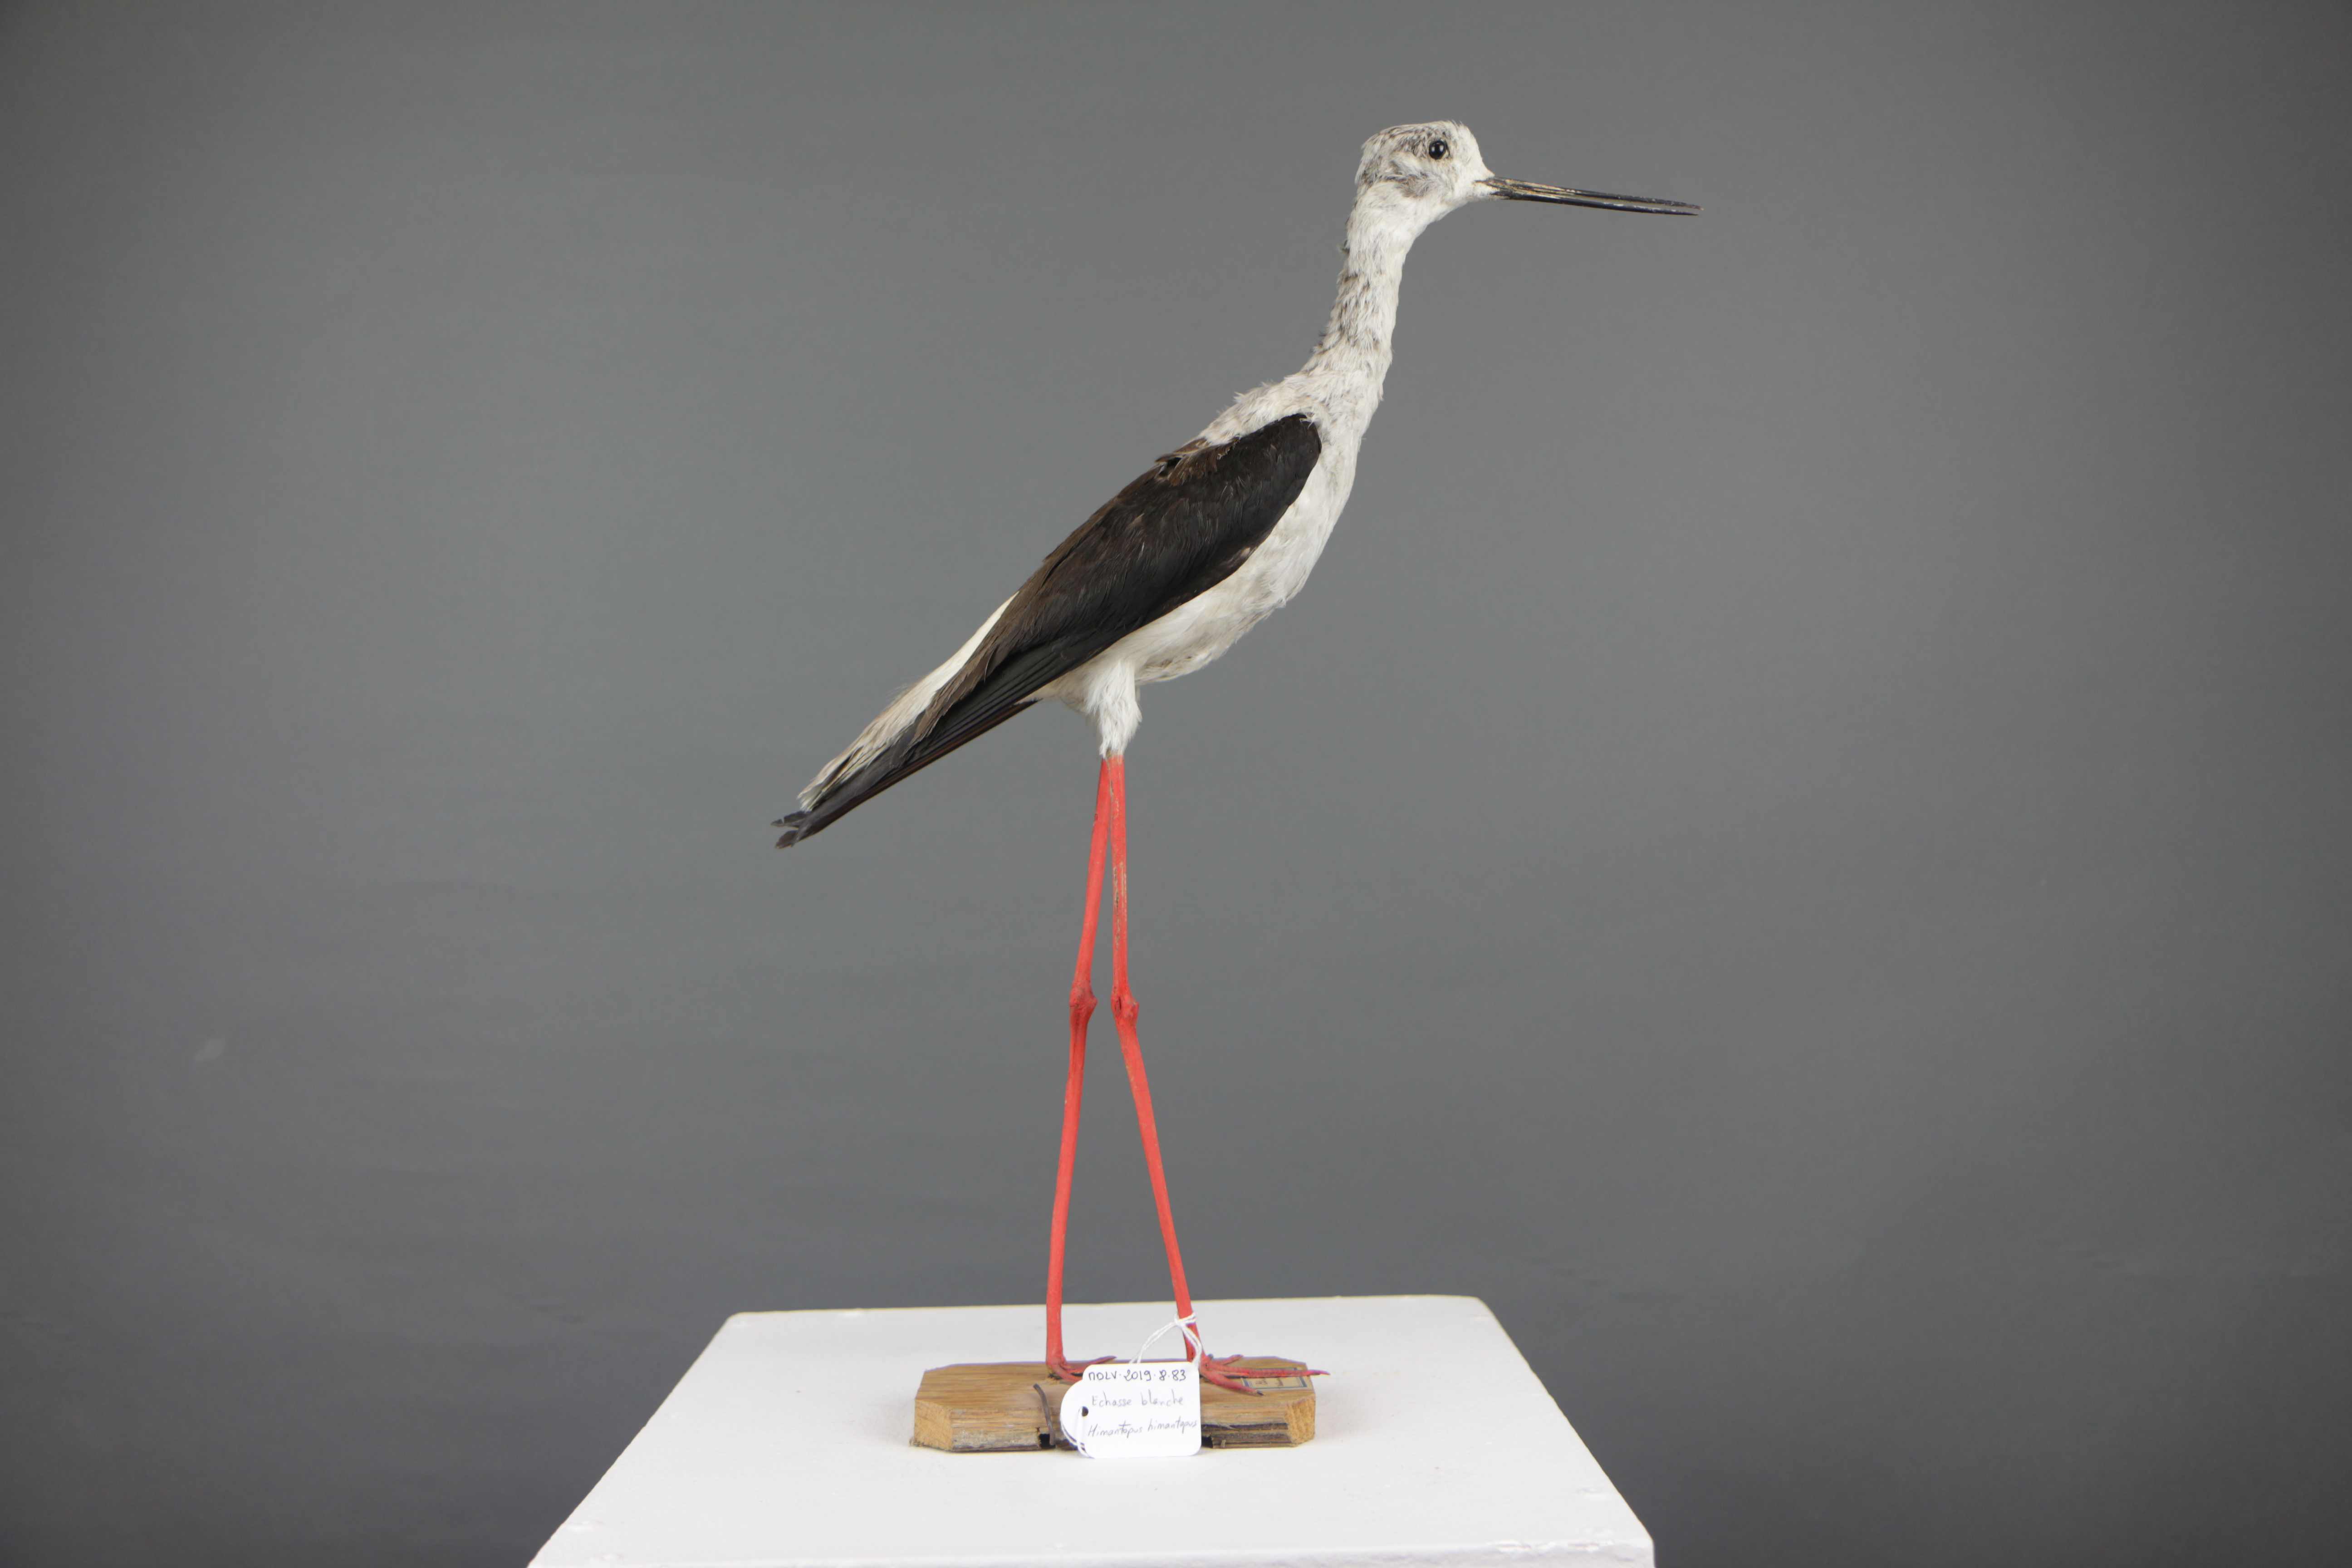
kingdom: Animalia
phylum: Chordata
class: Aves
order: Charadriiformes
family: Recurvirostridae
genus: Himantopus
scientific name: Himantopus himantopus
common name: Black-winged stilt
